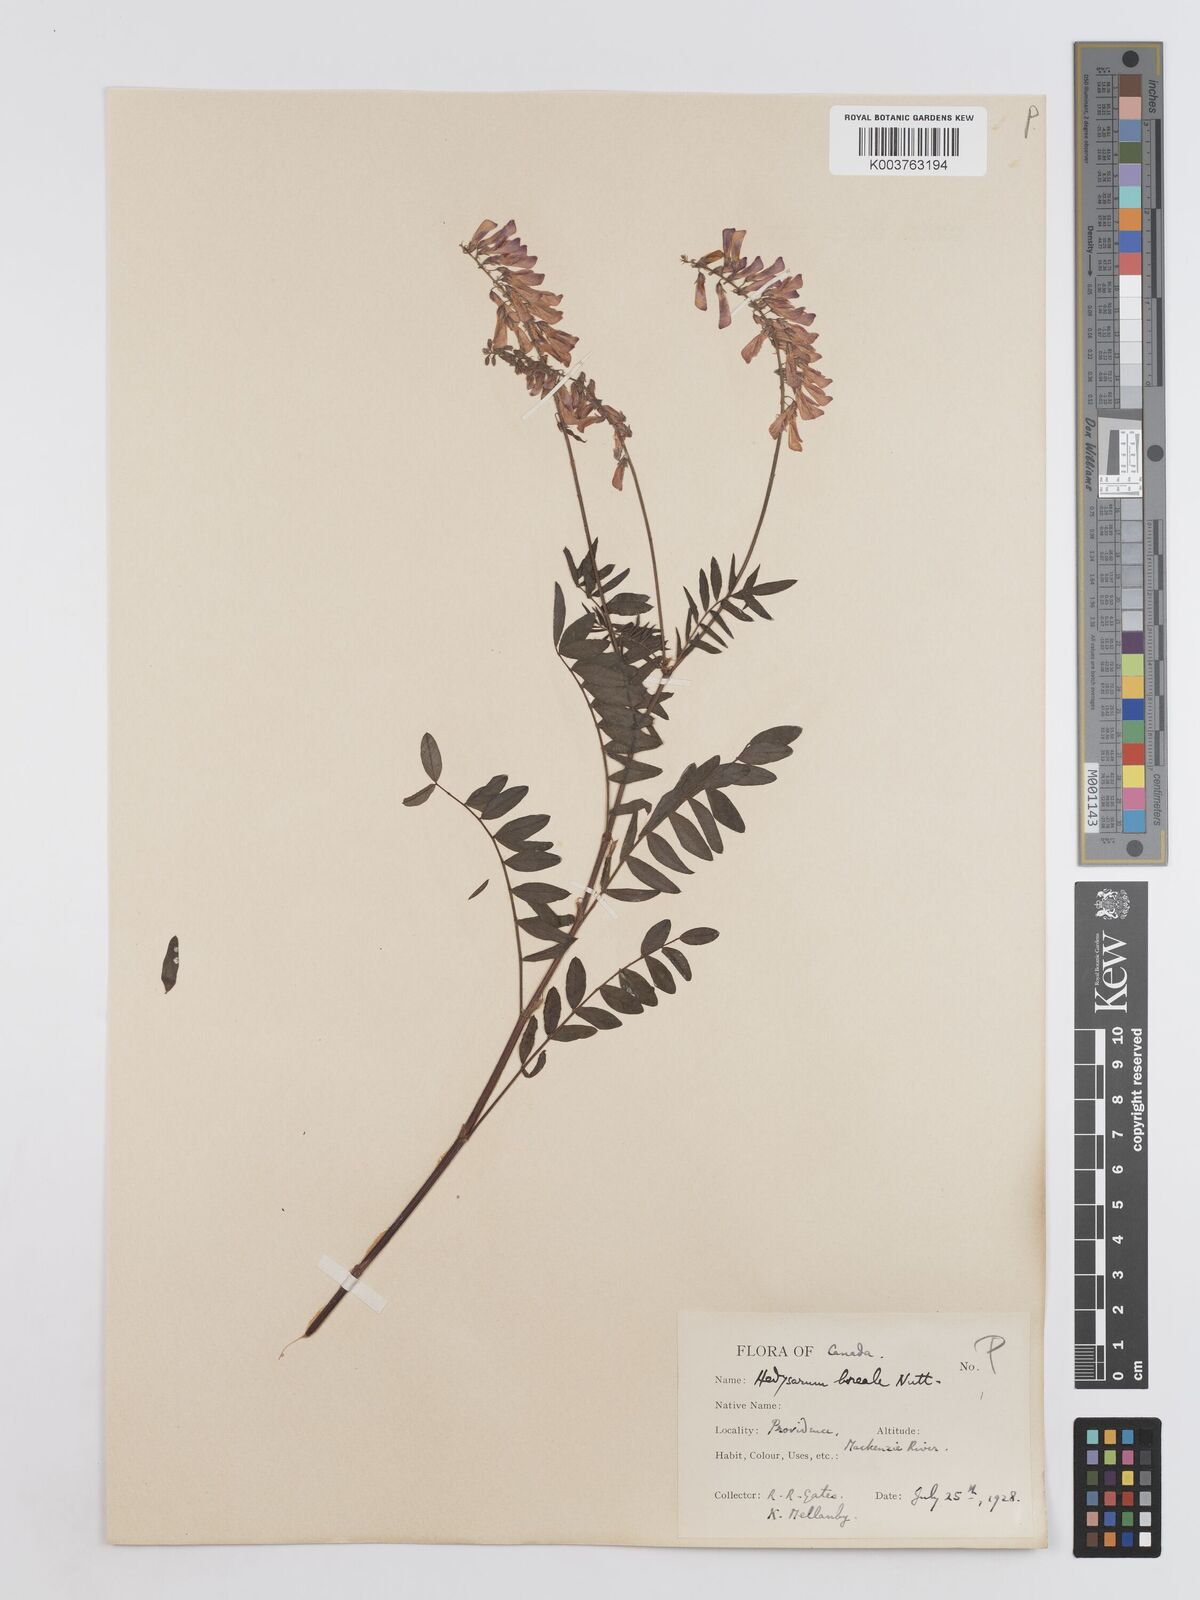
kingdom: Plantae
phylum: Tracheophyta
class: Magnoliopsida
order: Fabales
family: Fabaceae
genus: Hedysarum
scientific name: Hedysarum boreale
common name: Northern sweet-vetch
